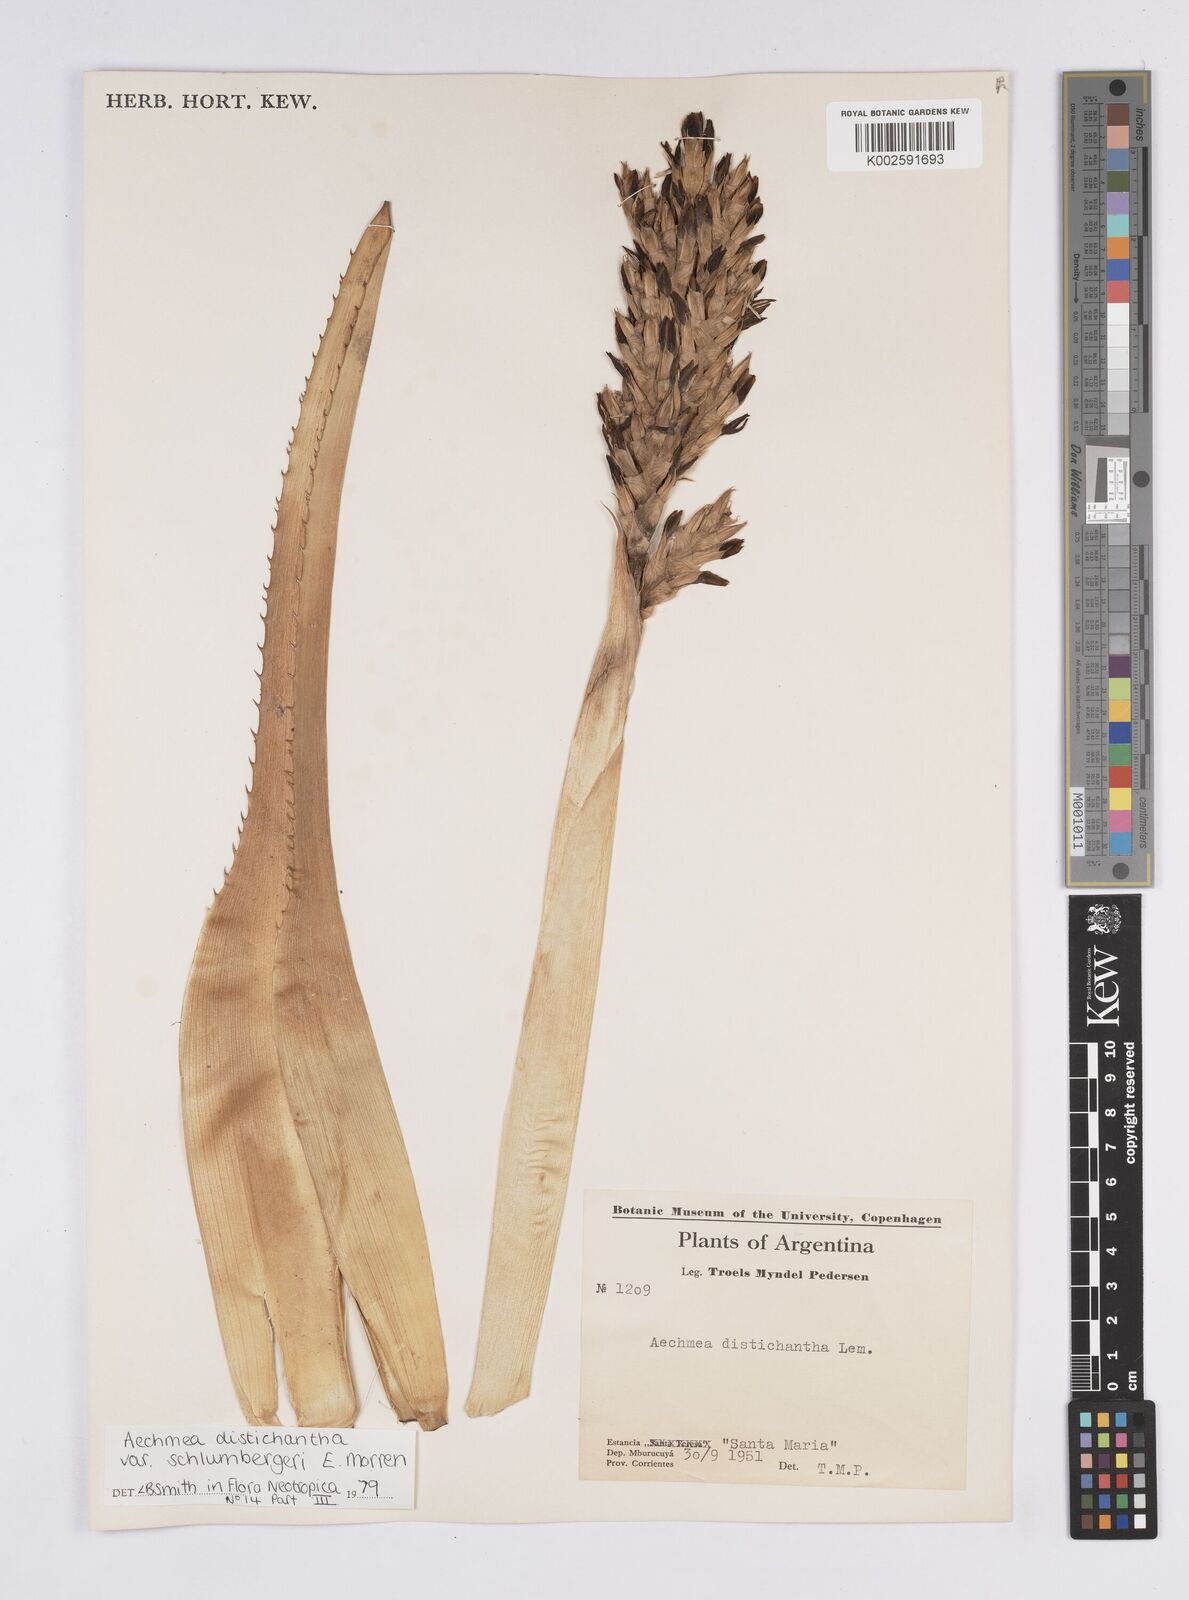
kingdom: Plantae
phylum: Tracheophyta
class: Liliopsida
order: Poales
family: Bromeliaceae
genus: Aechmea
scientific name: Aechmea distichantha
